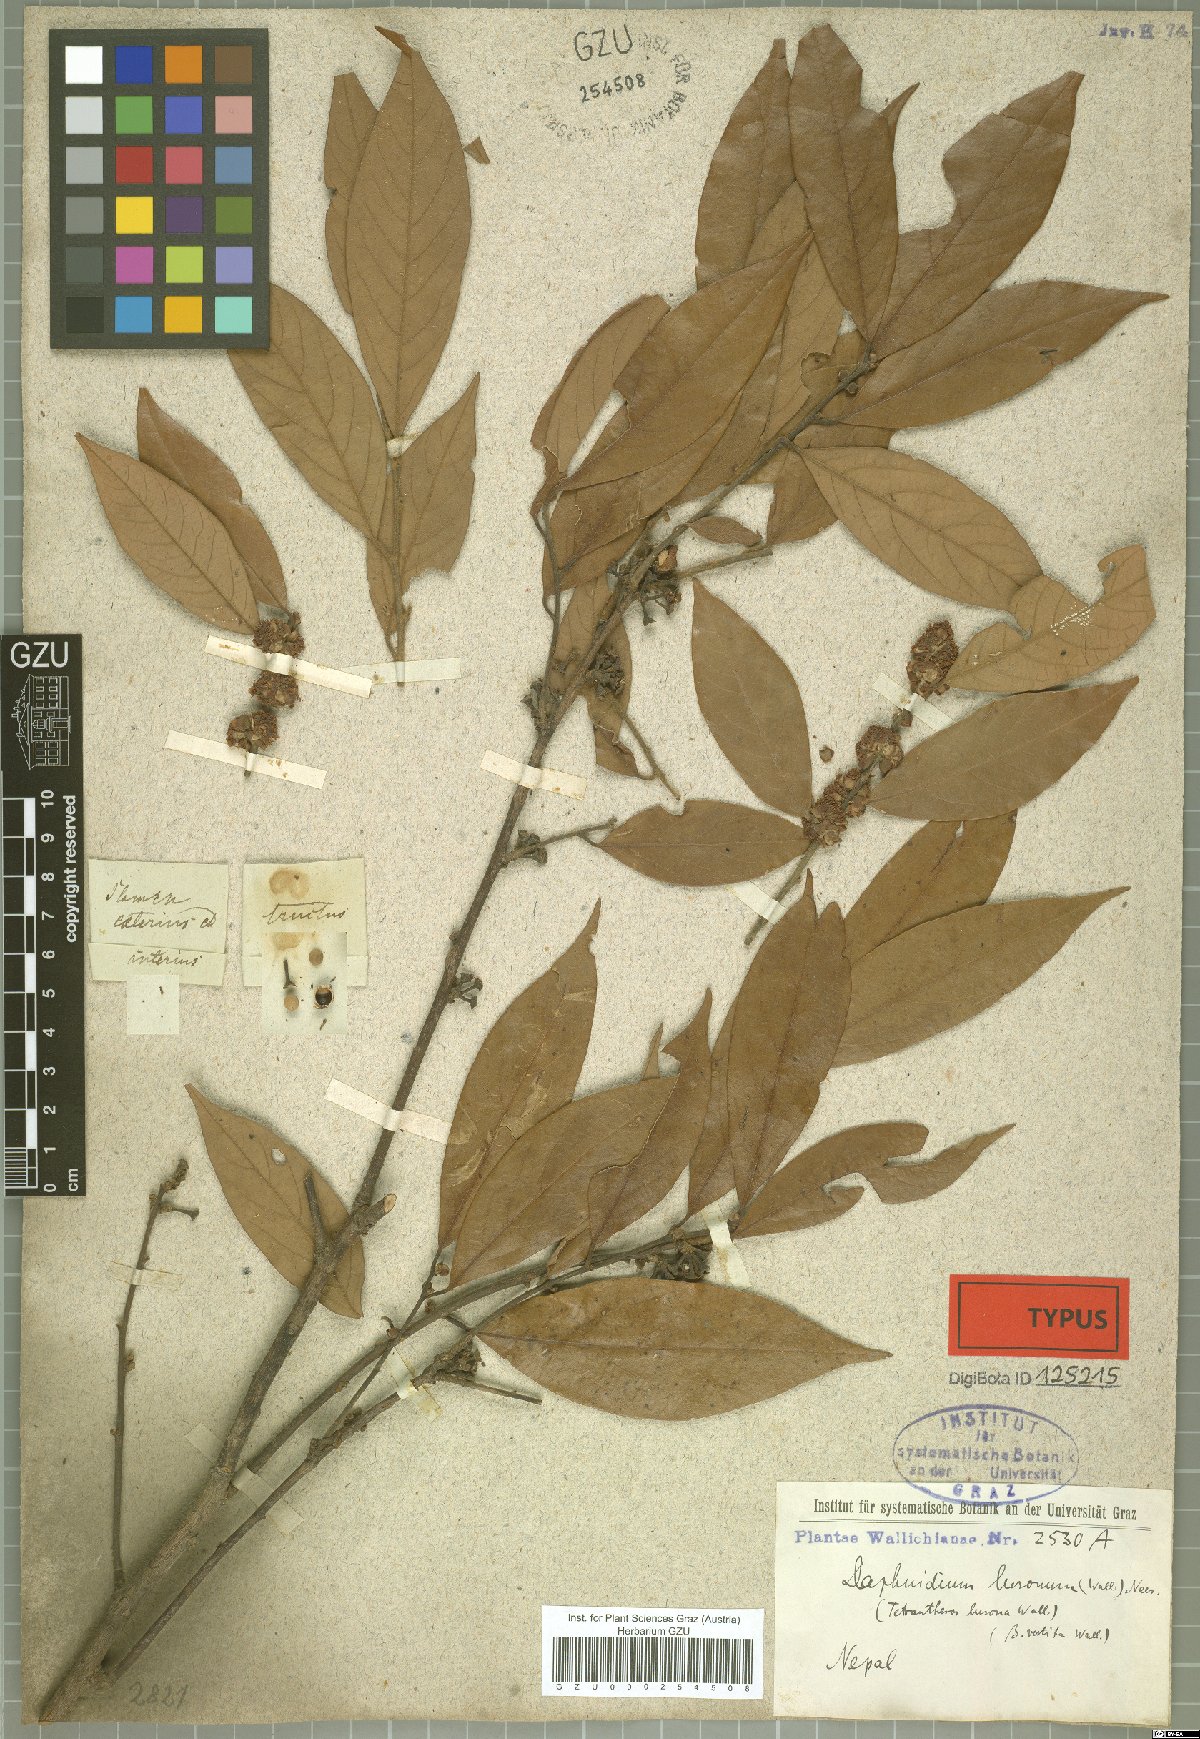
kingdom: Plantae
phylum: Tracheophyta
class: Magnoliopsida
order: Laurales
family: Lauraceae
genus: Lindera
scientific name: Lindera nacusua
